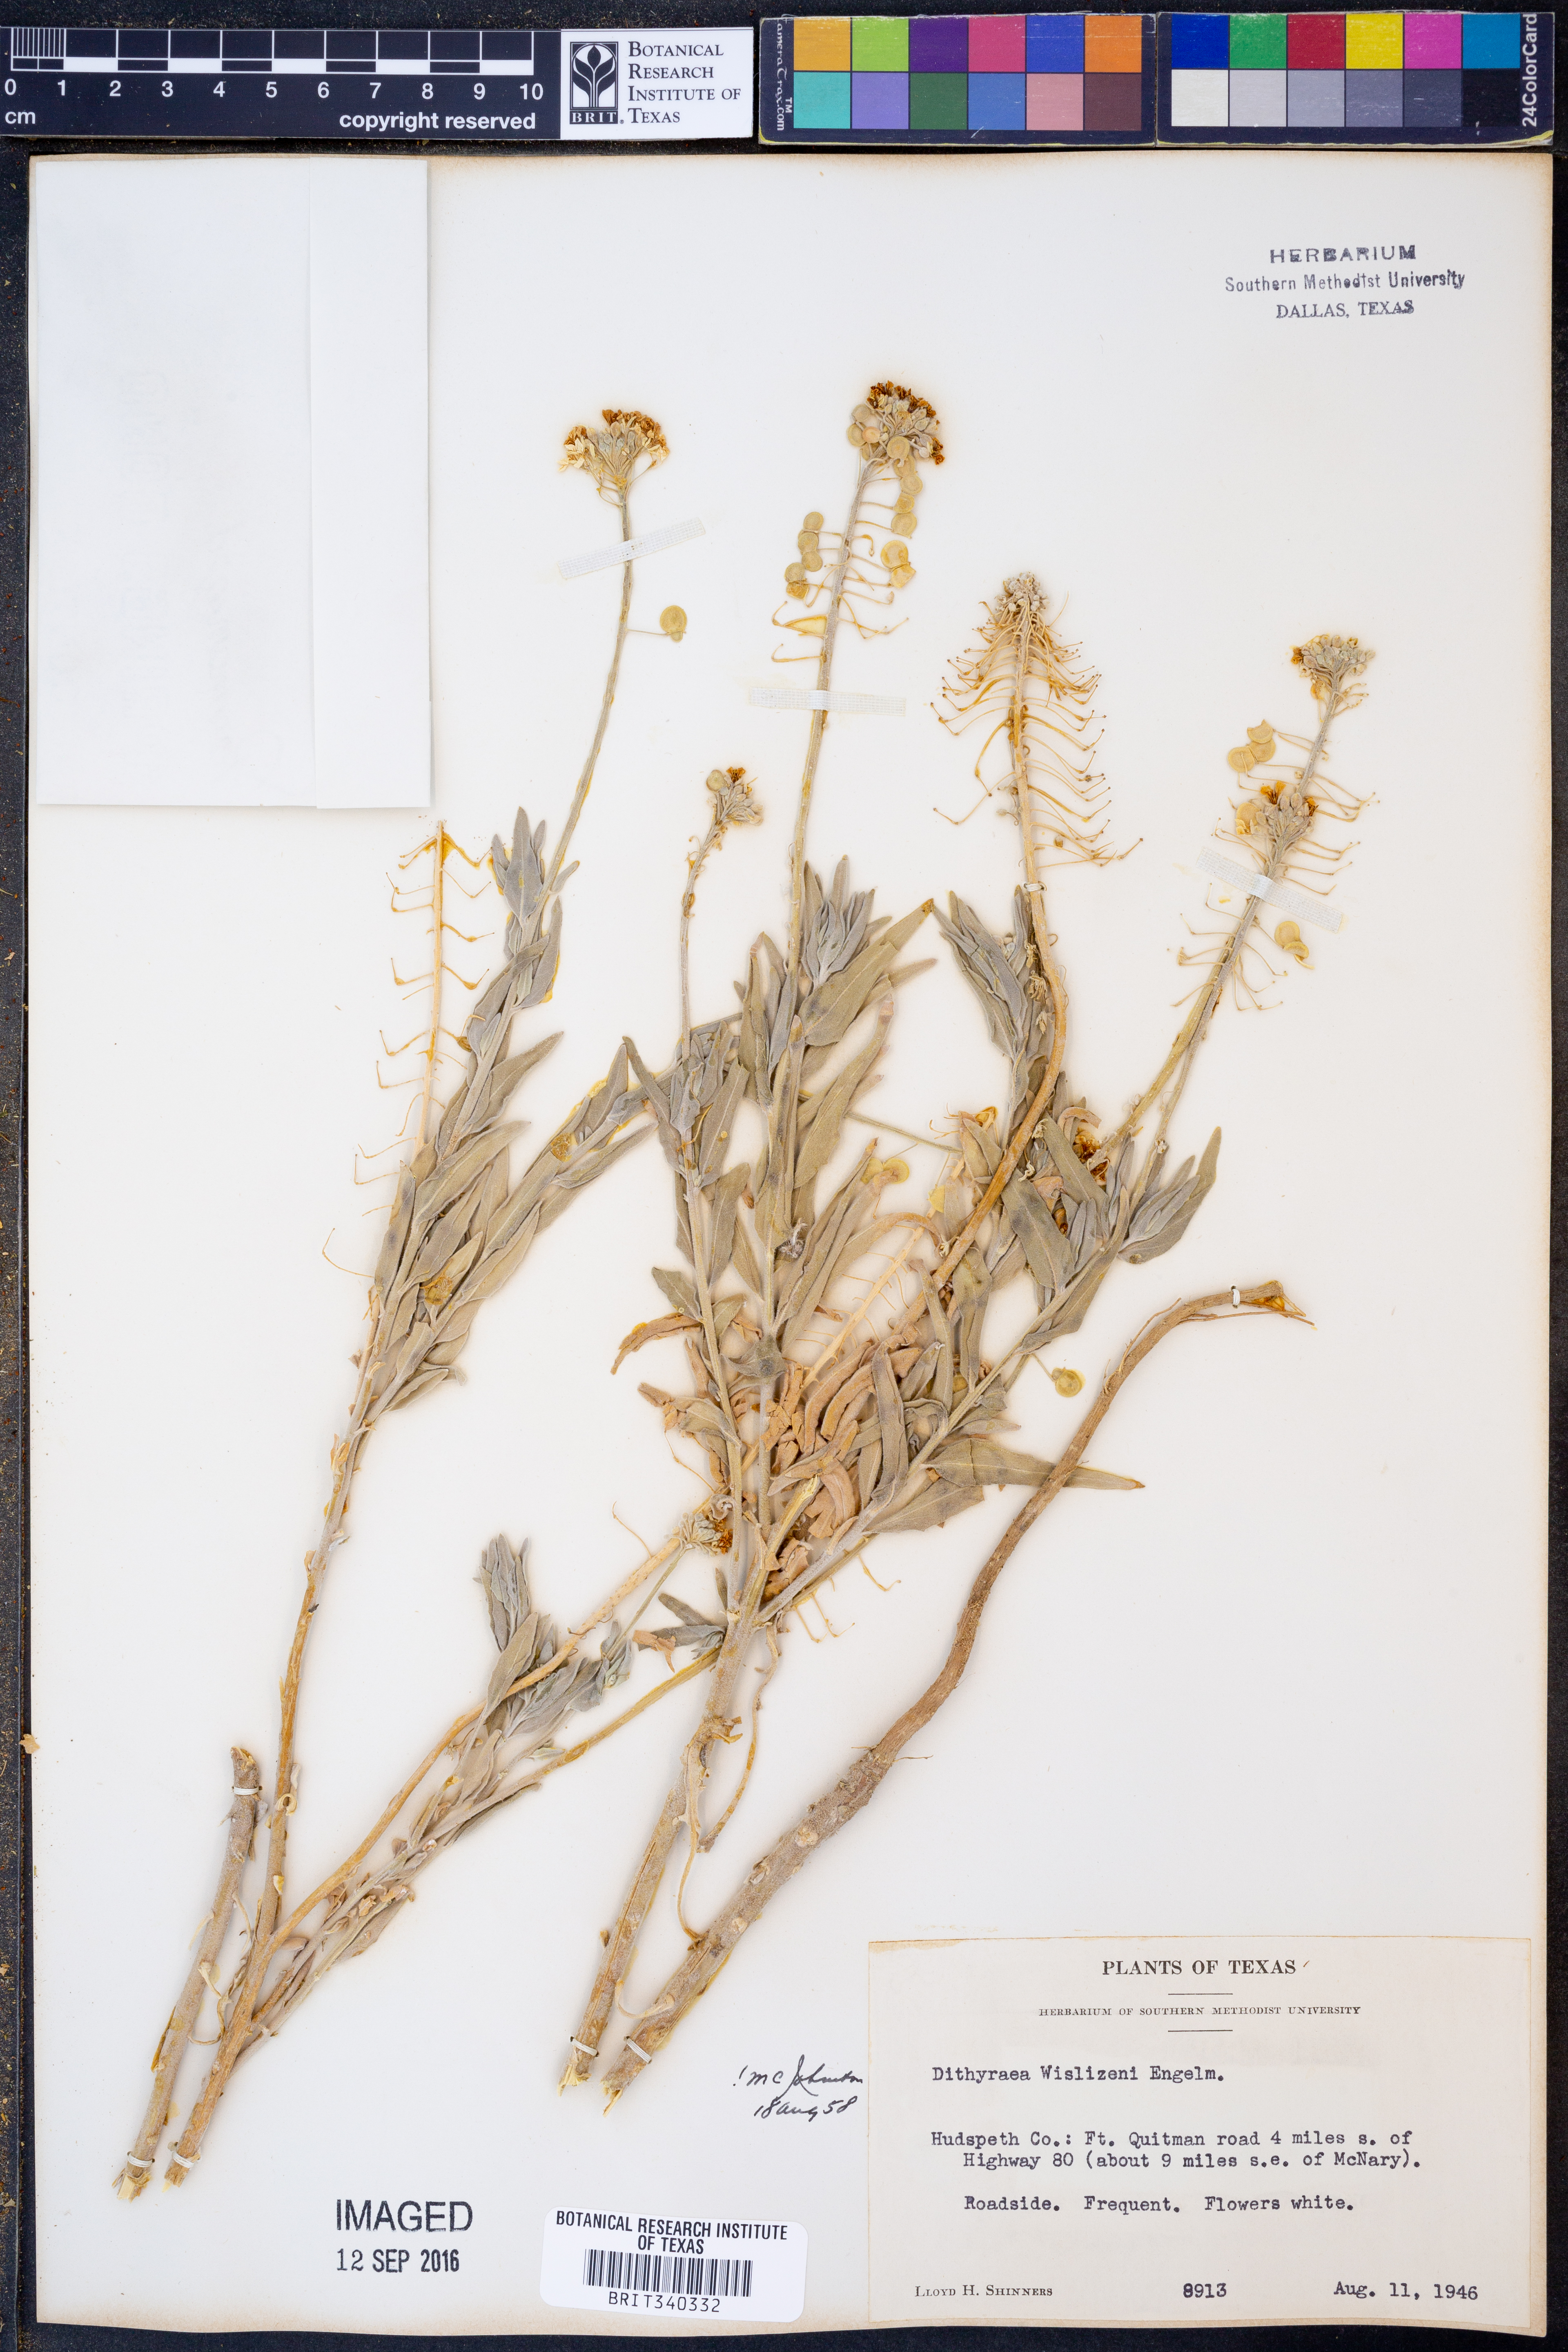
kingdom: Plantae
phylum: Tracheophyta
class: Magnoliopsida
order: Brassicales
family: Brassicaceae
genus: Dimorphocarpa
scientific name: Dimorphocarpa wislizenii
